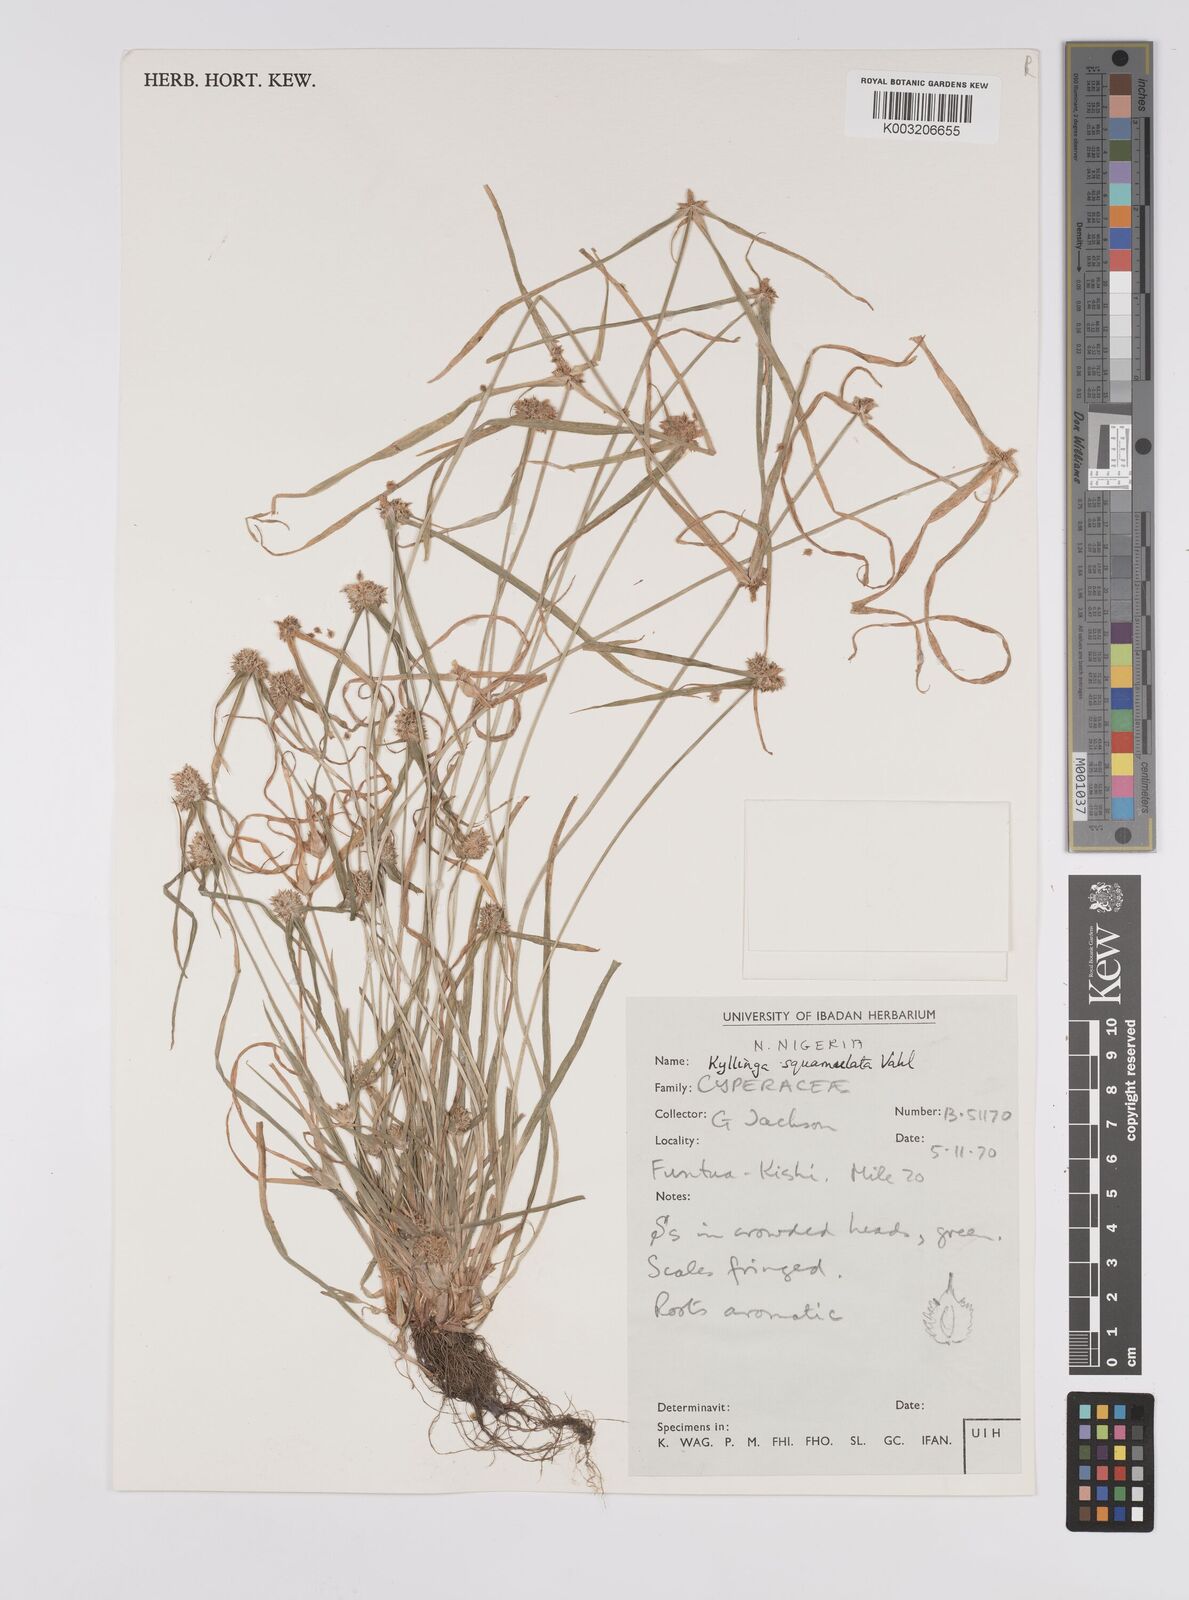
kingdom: Plantae
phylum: Tracheophyta
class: Liliopsida
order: Poales
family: Cyperaceae
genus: Cyperus
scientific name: Cyperus distans
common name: Slender cyperus
